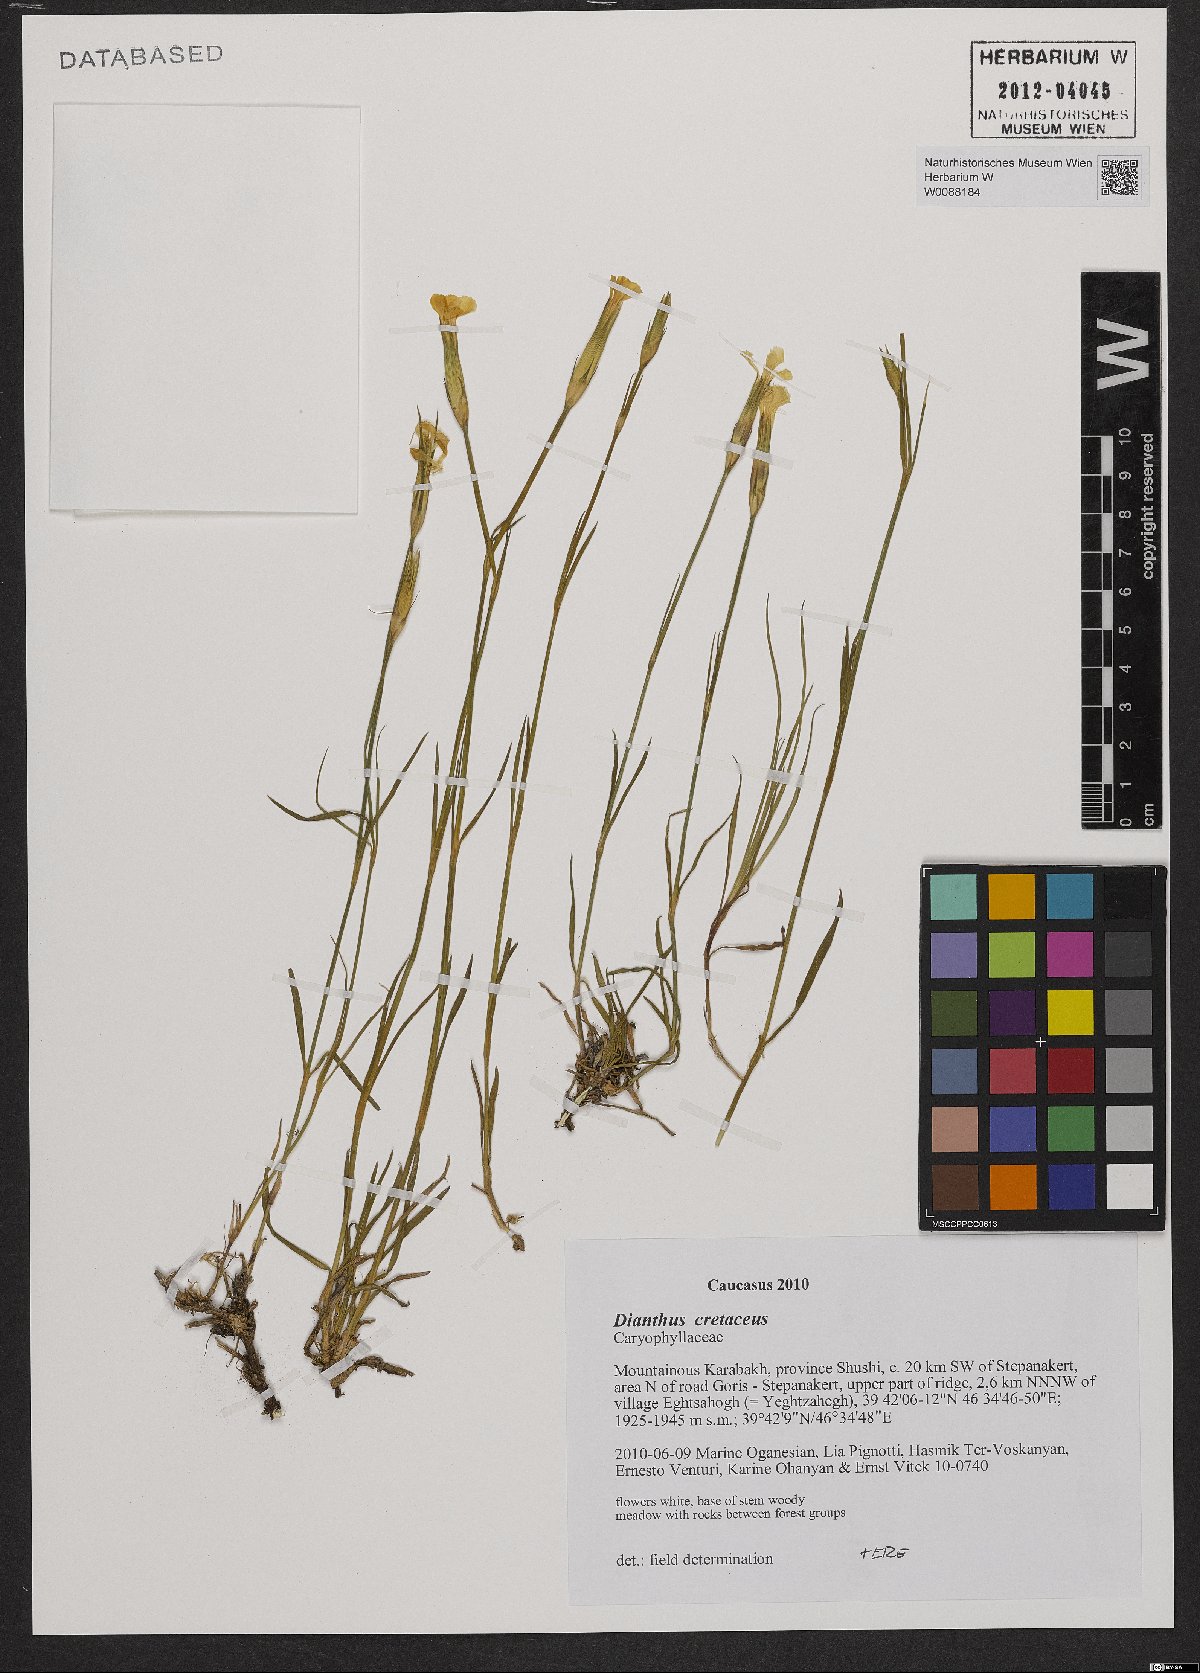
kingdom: Plantae
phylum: Tracheophyta
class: Magnoliopsida
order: Caryophyllales
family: Caryophyllaceae
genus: Dianthus
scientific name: Dianthus cretaceus
